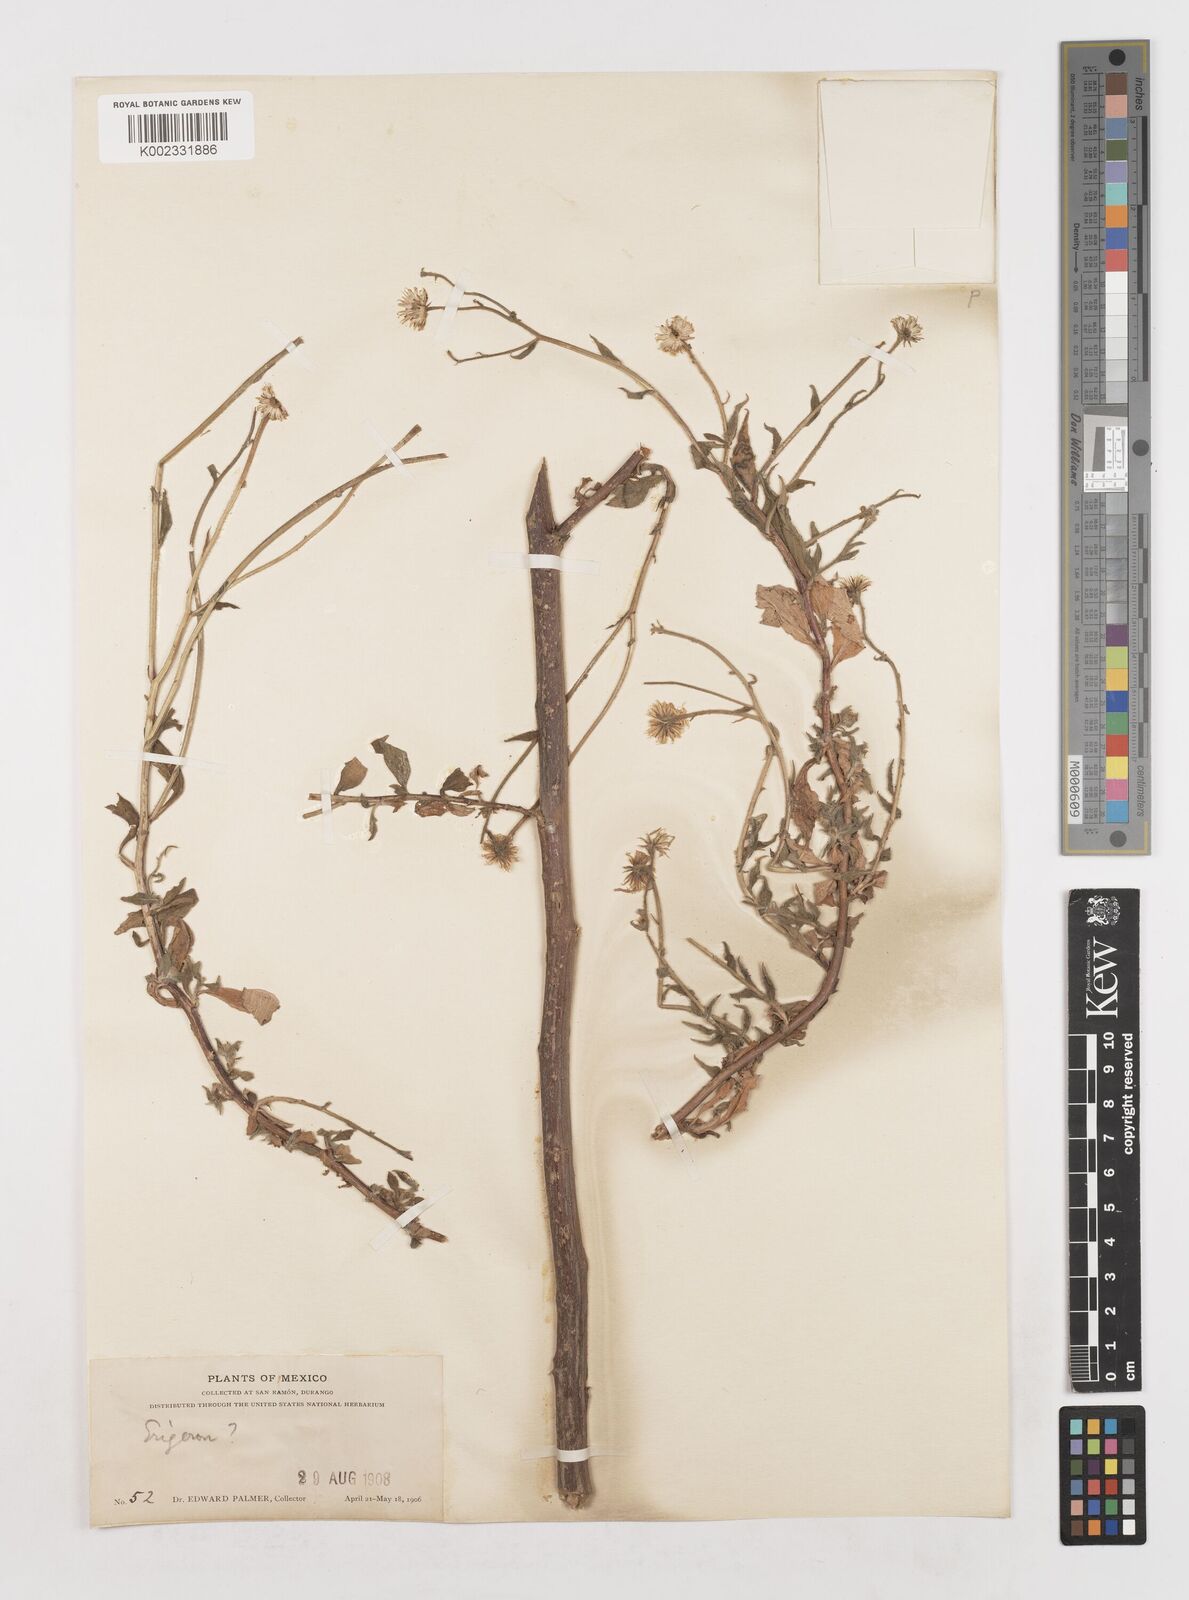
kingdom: Plantae
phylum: Tracheophyta
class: Magnoliopsida
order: Asterales
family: Asteraceae
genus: Erigeron
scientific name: Erigeron
